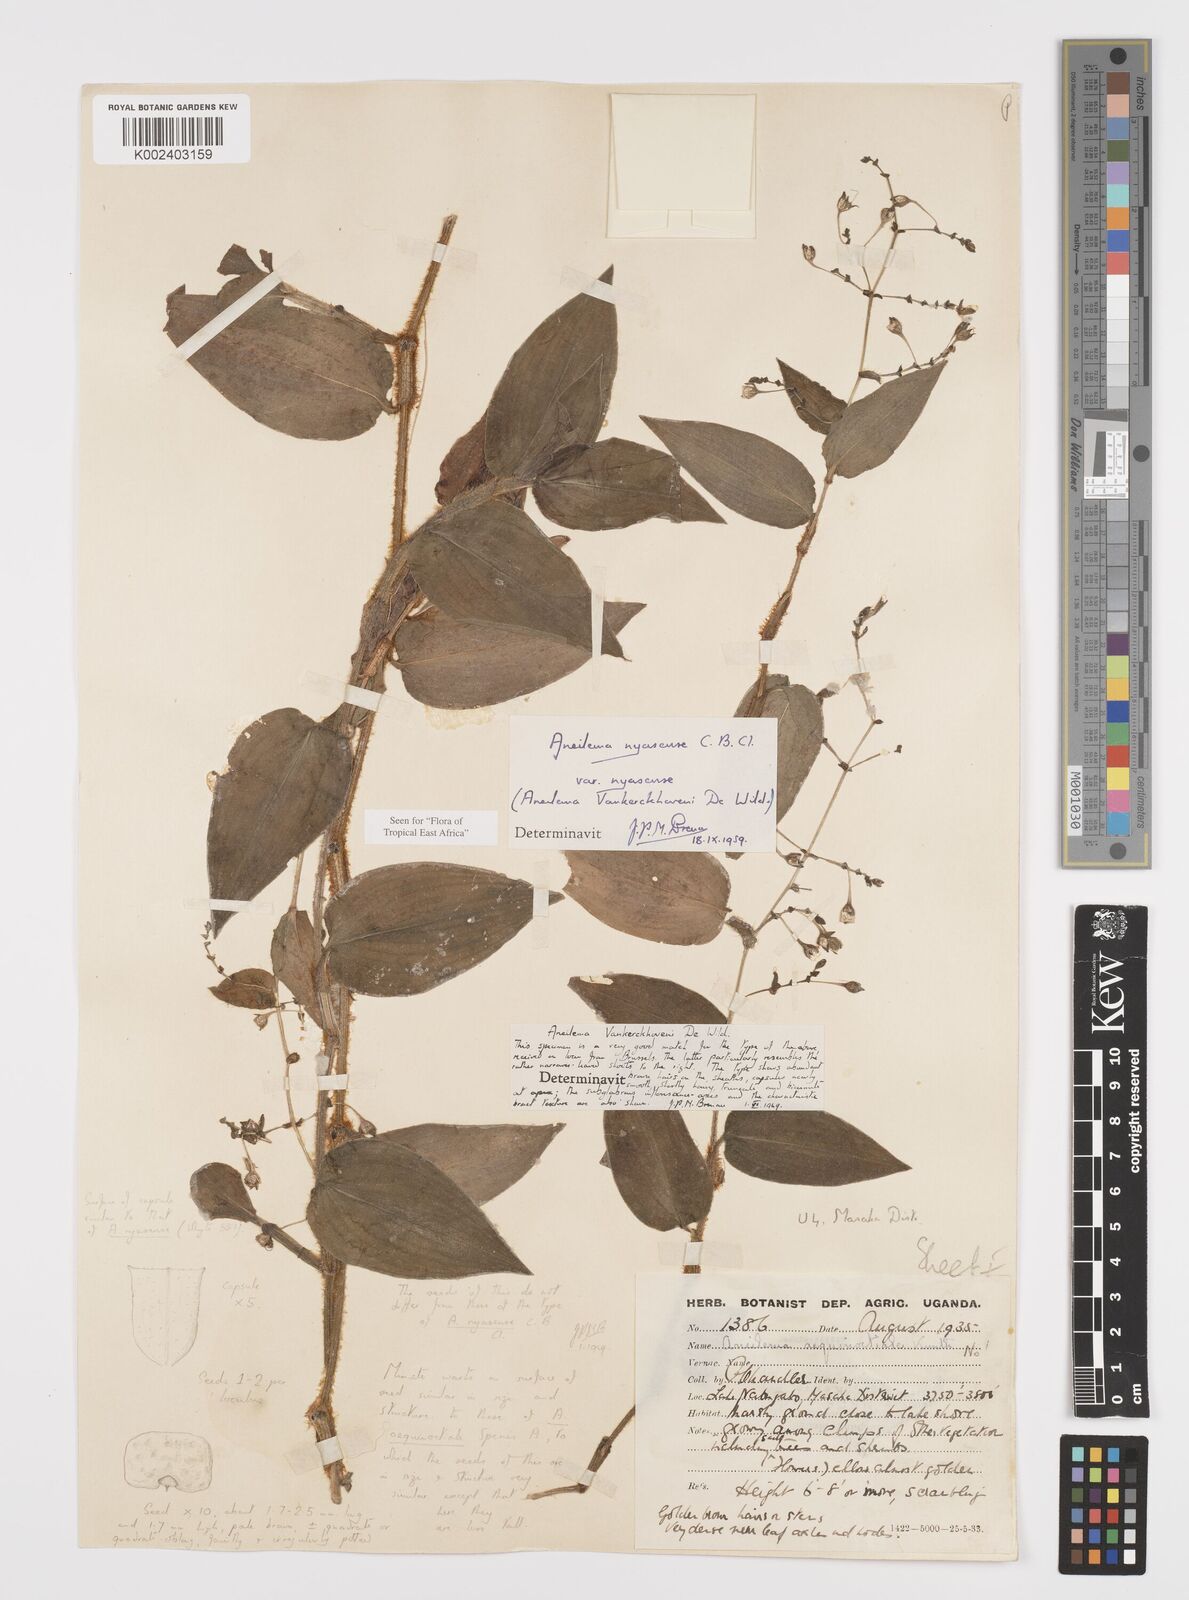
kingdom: Plantae
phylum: Tracheophyta
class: Liliopsida
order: Commelinales
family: Commelinaceae
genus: Aneilema
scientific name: Aneilema nyasense
